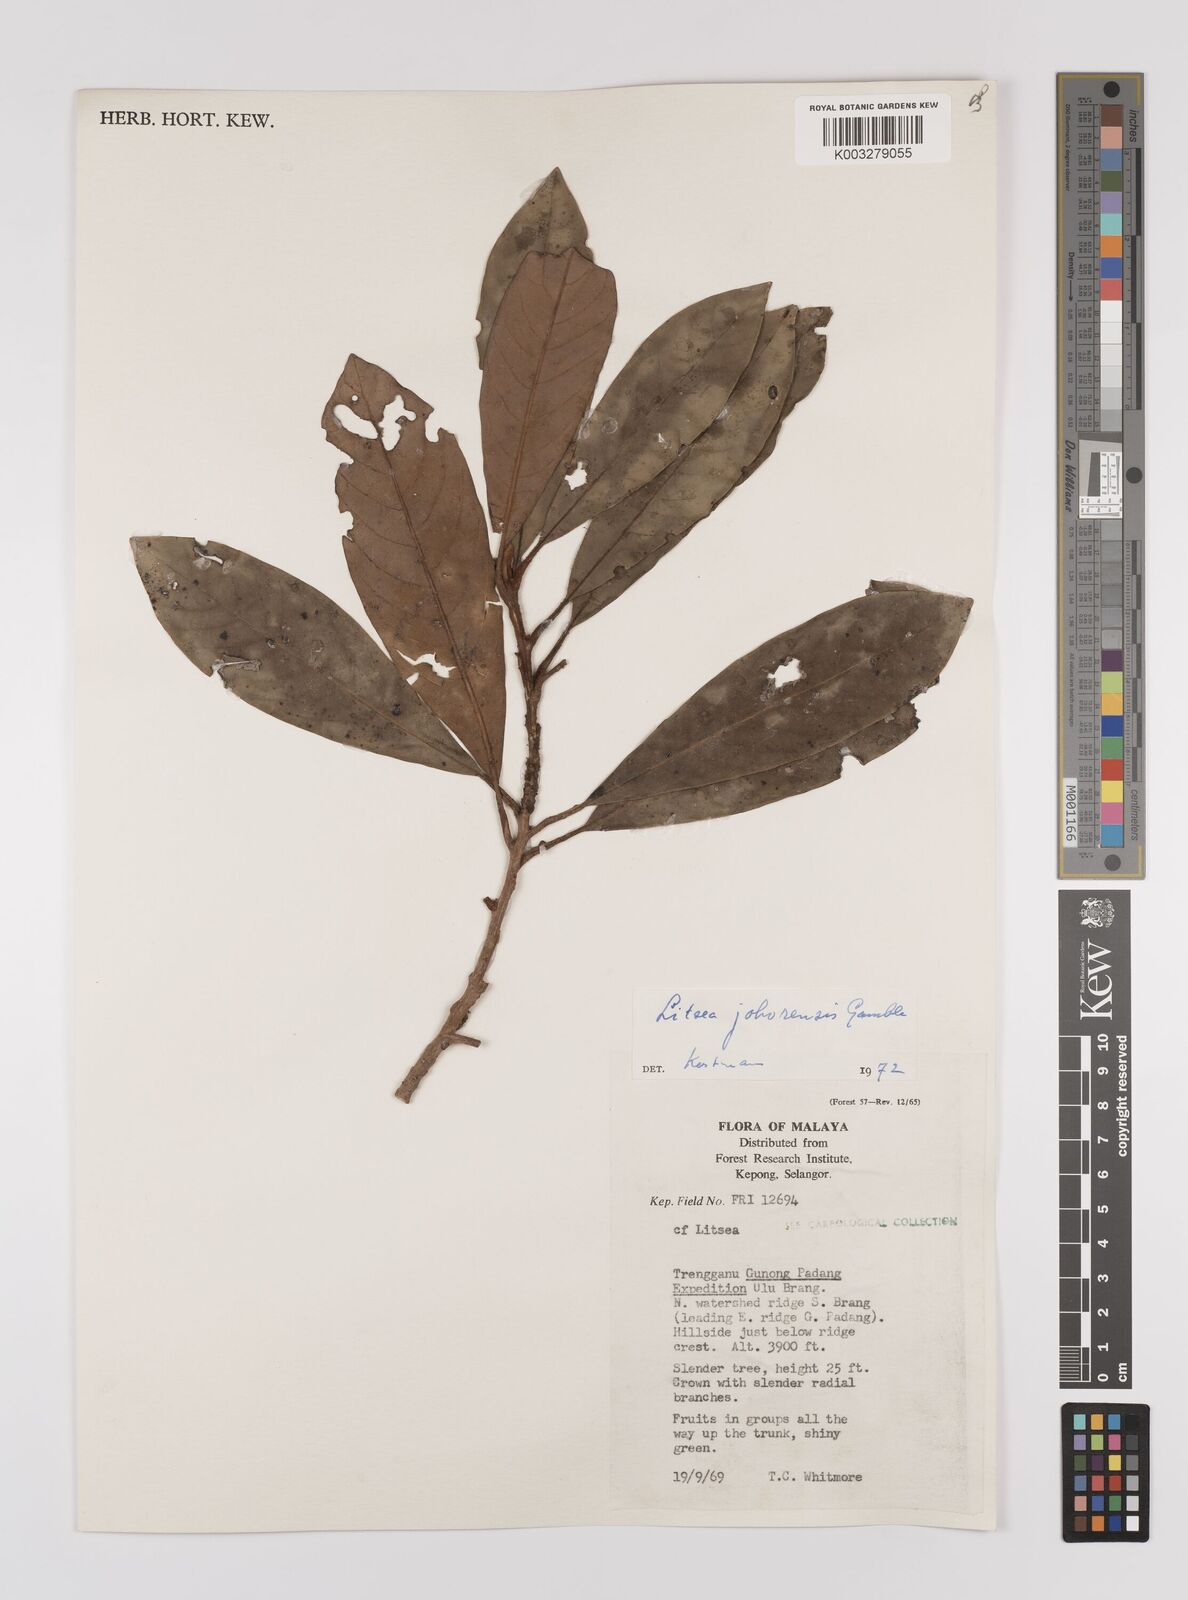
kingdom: Plantae
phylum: Tracheophyta
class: Magnoliopsida
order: Laurales
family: Lauraceae
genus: Litsea
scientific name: Litsea johorensis
